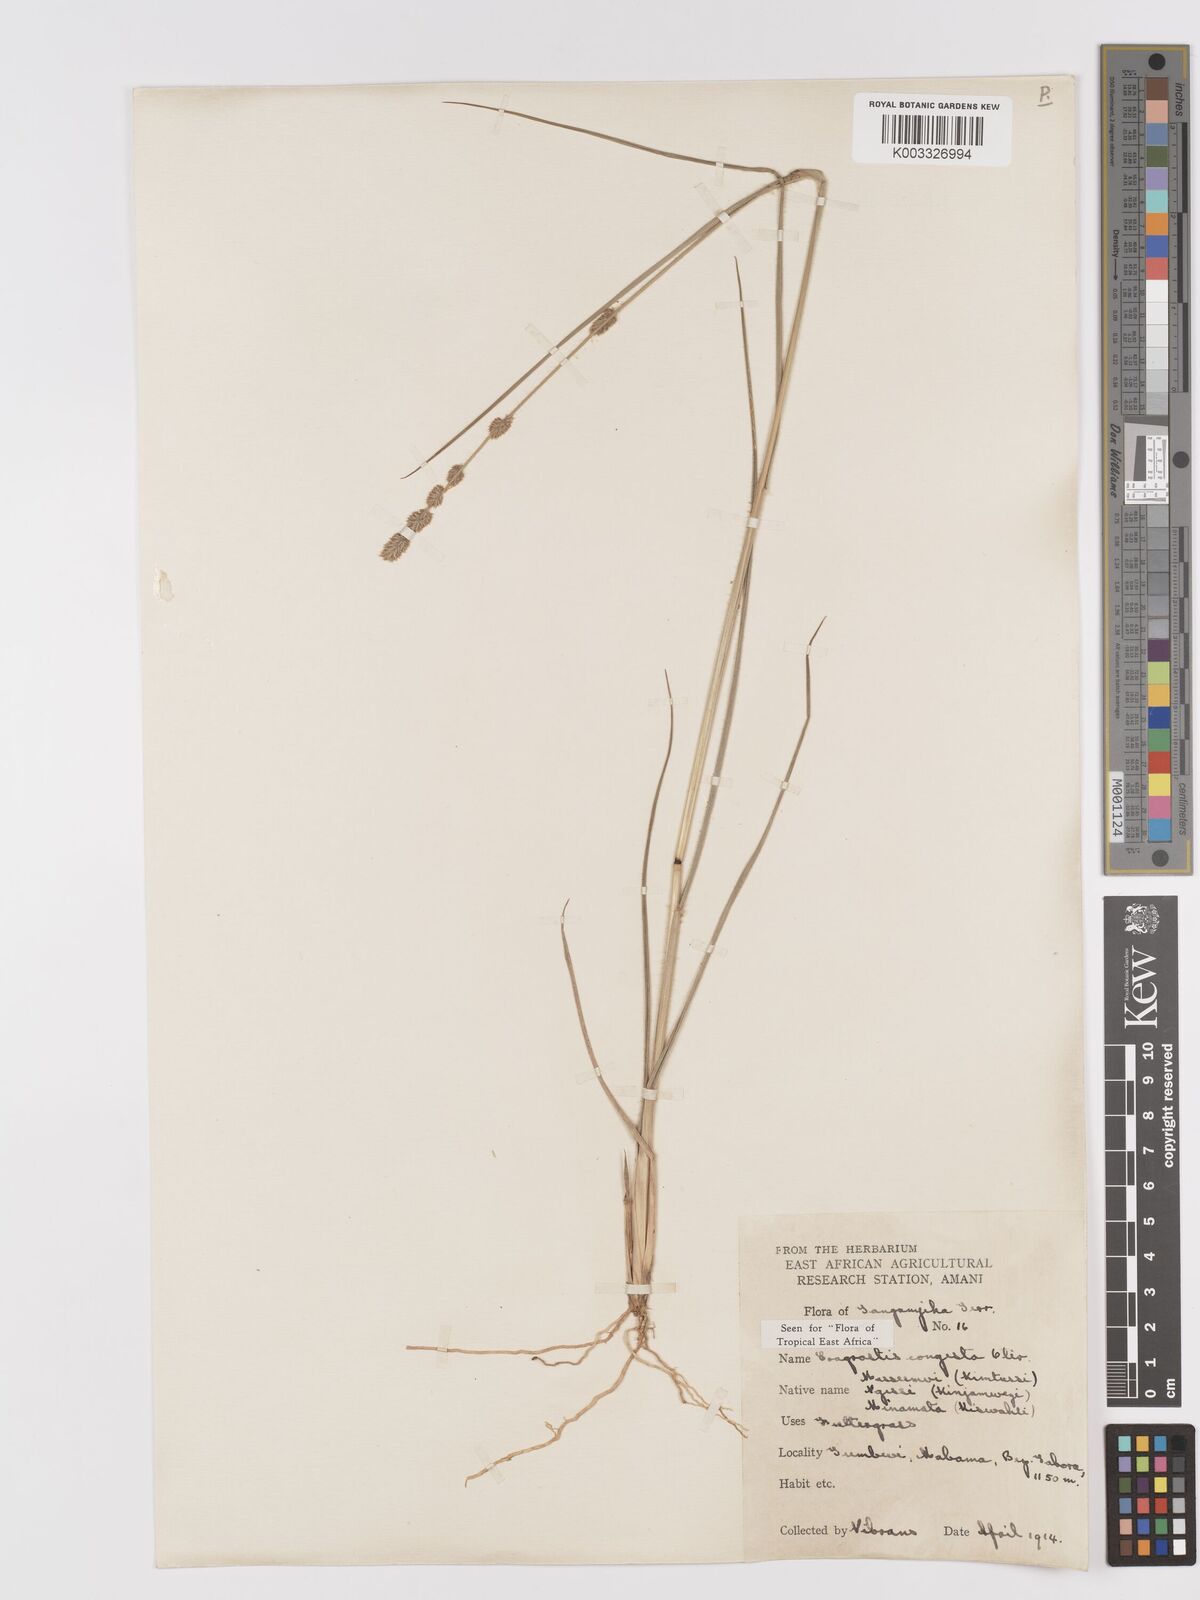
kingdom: Plantae
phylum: Tracheophyta
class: Liliopsida
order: Poales
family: Poaceae
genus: Eragrostis
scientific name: Eragrostis congesta
